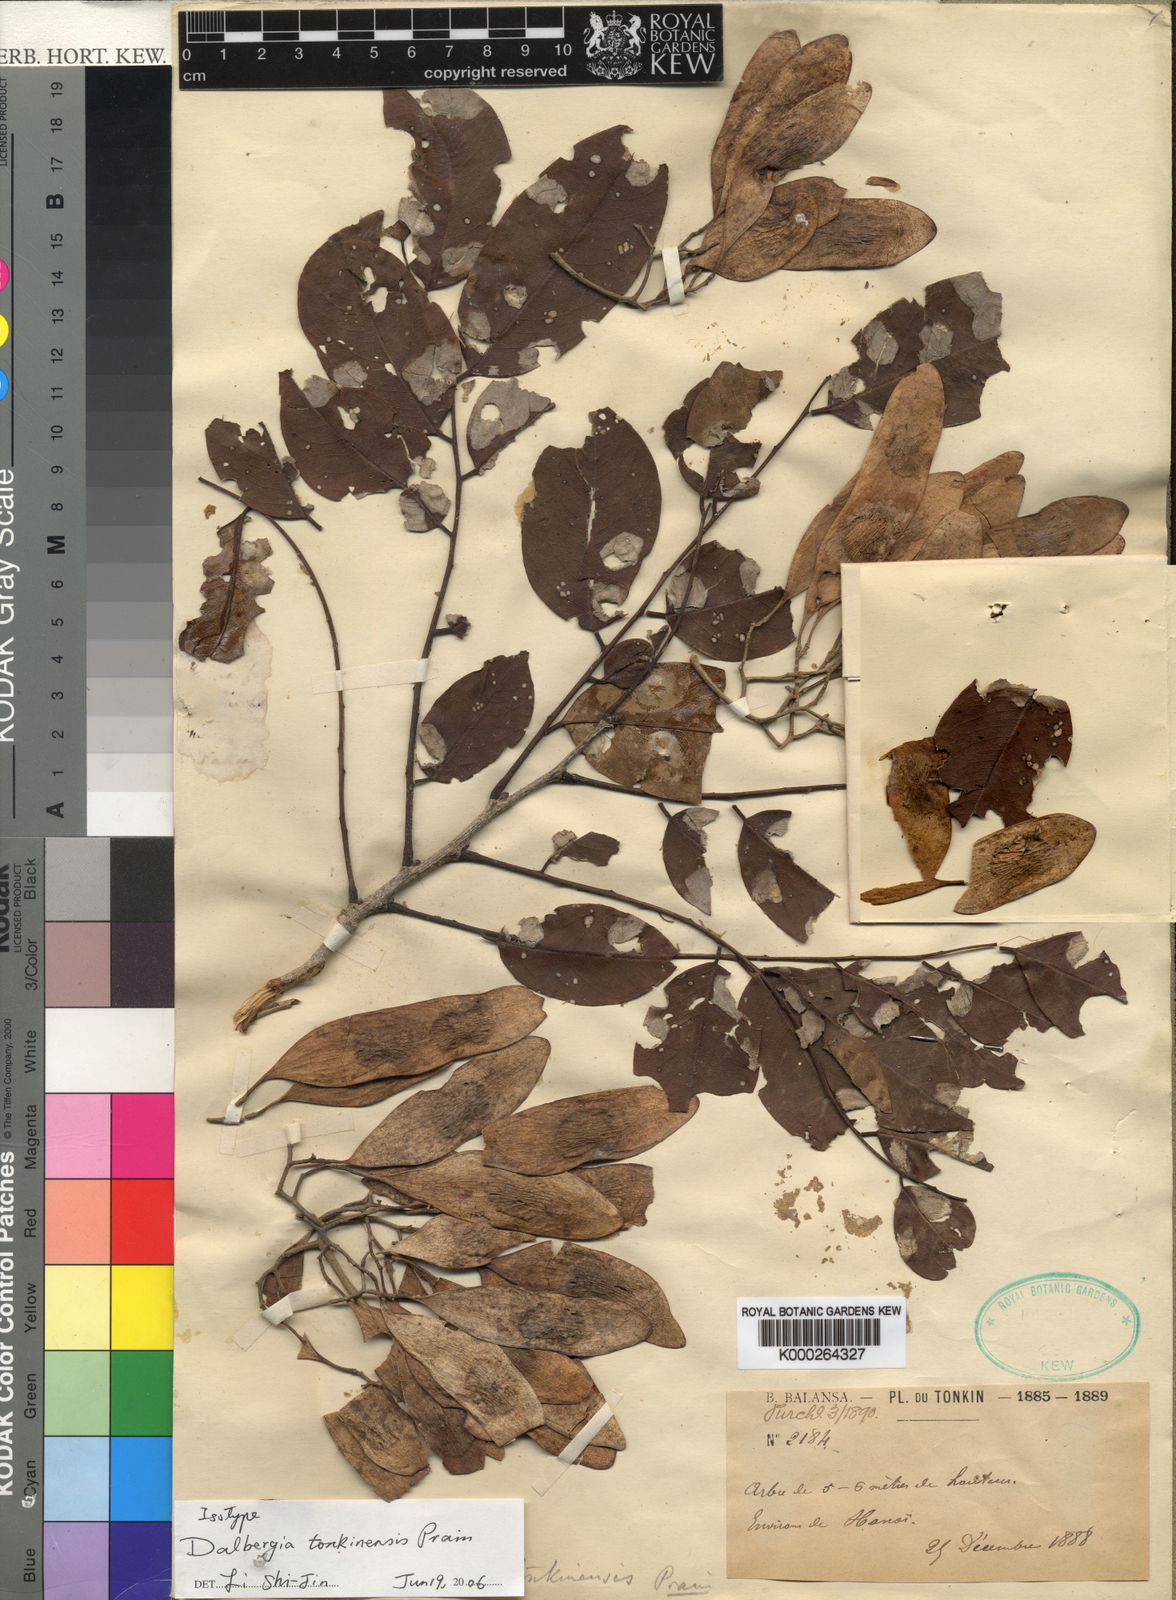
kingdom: Plantae
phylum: Tracheophyta
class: Magnoliopsida
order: Fabales
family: Fabaceae
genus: Dalbergia
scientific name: Dalbergia tonkinensis
